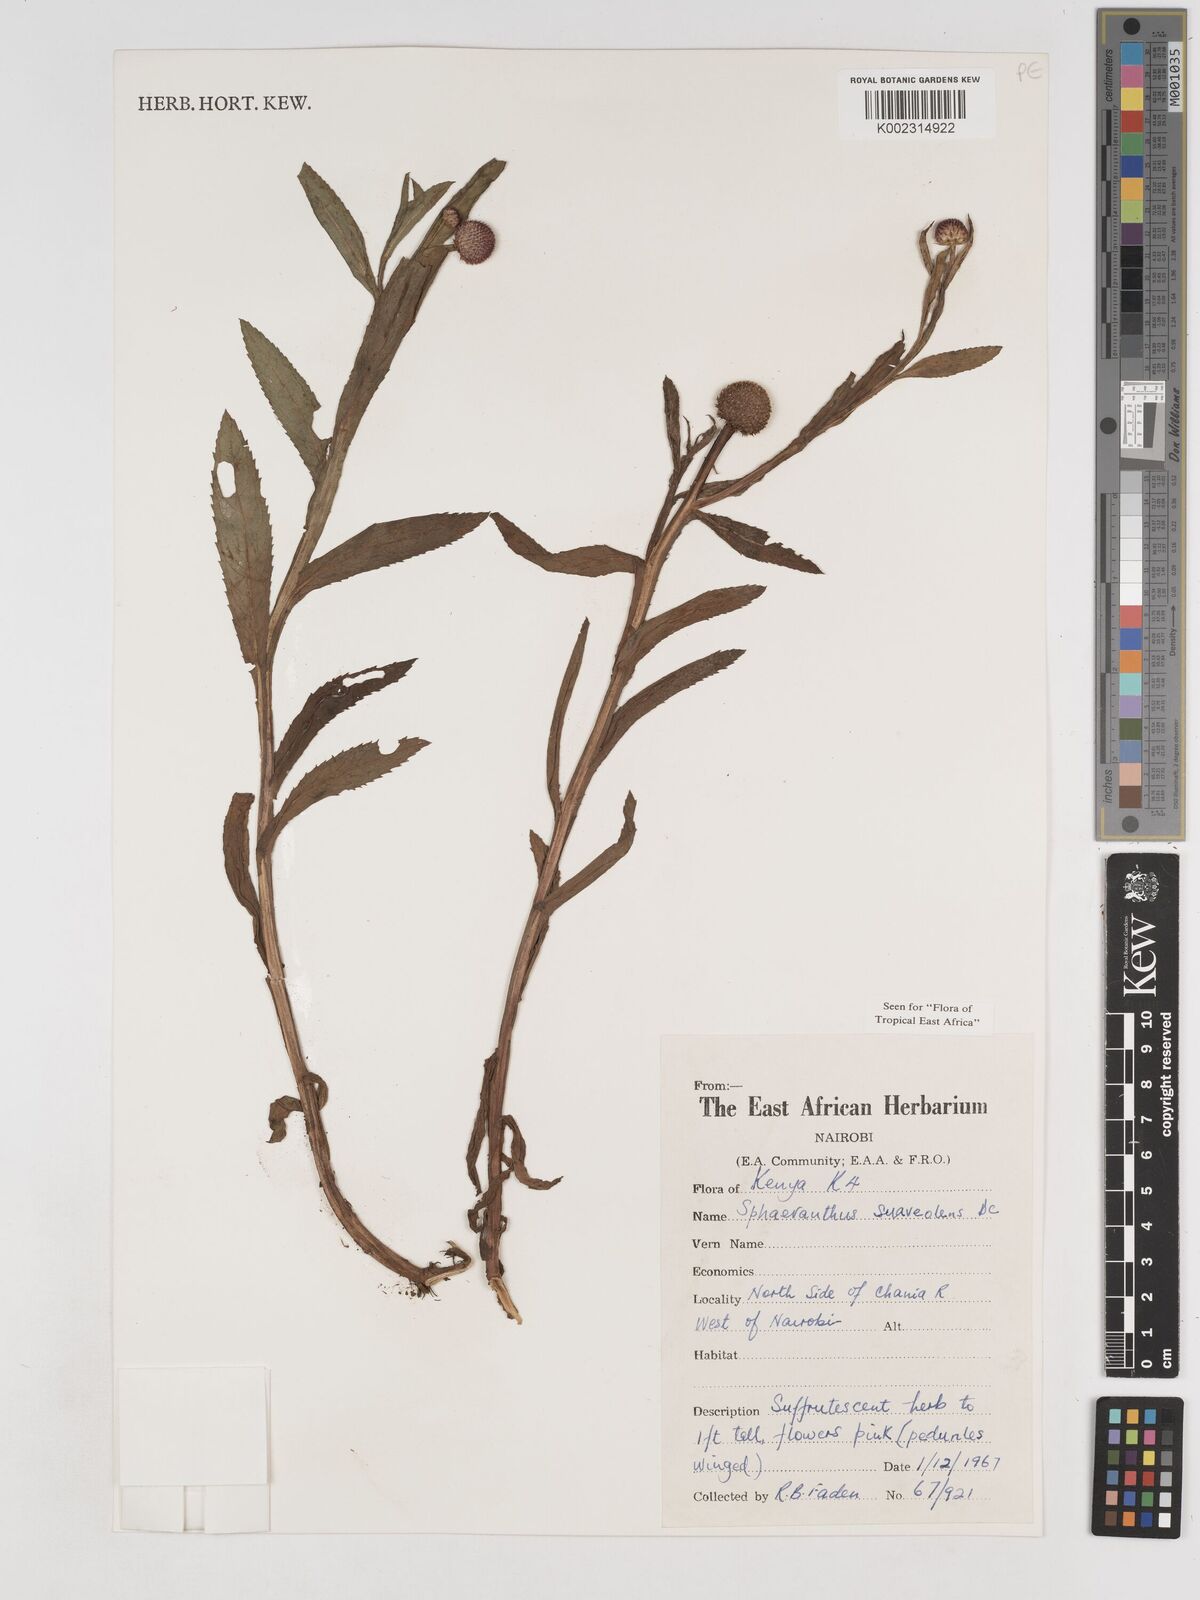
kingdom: Plantae
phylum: Tracheophyta
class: Magnoliopsida
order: Asterales
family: Asteraceae
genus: Sphaeranthus
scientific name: Sphaeranthus suaveolens
